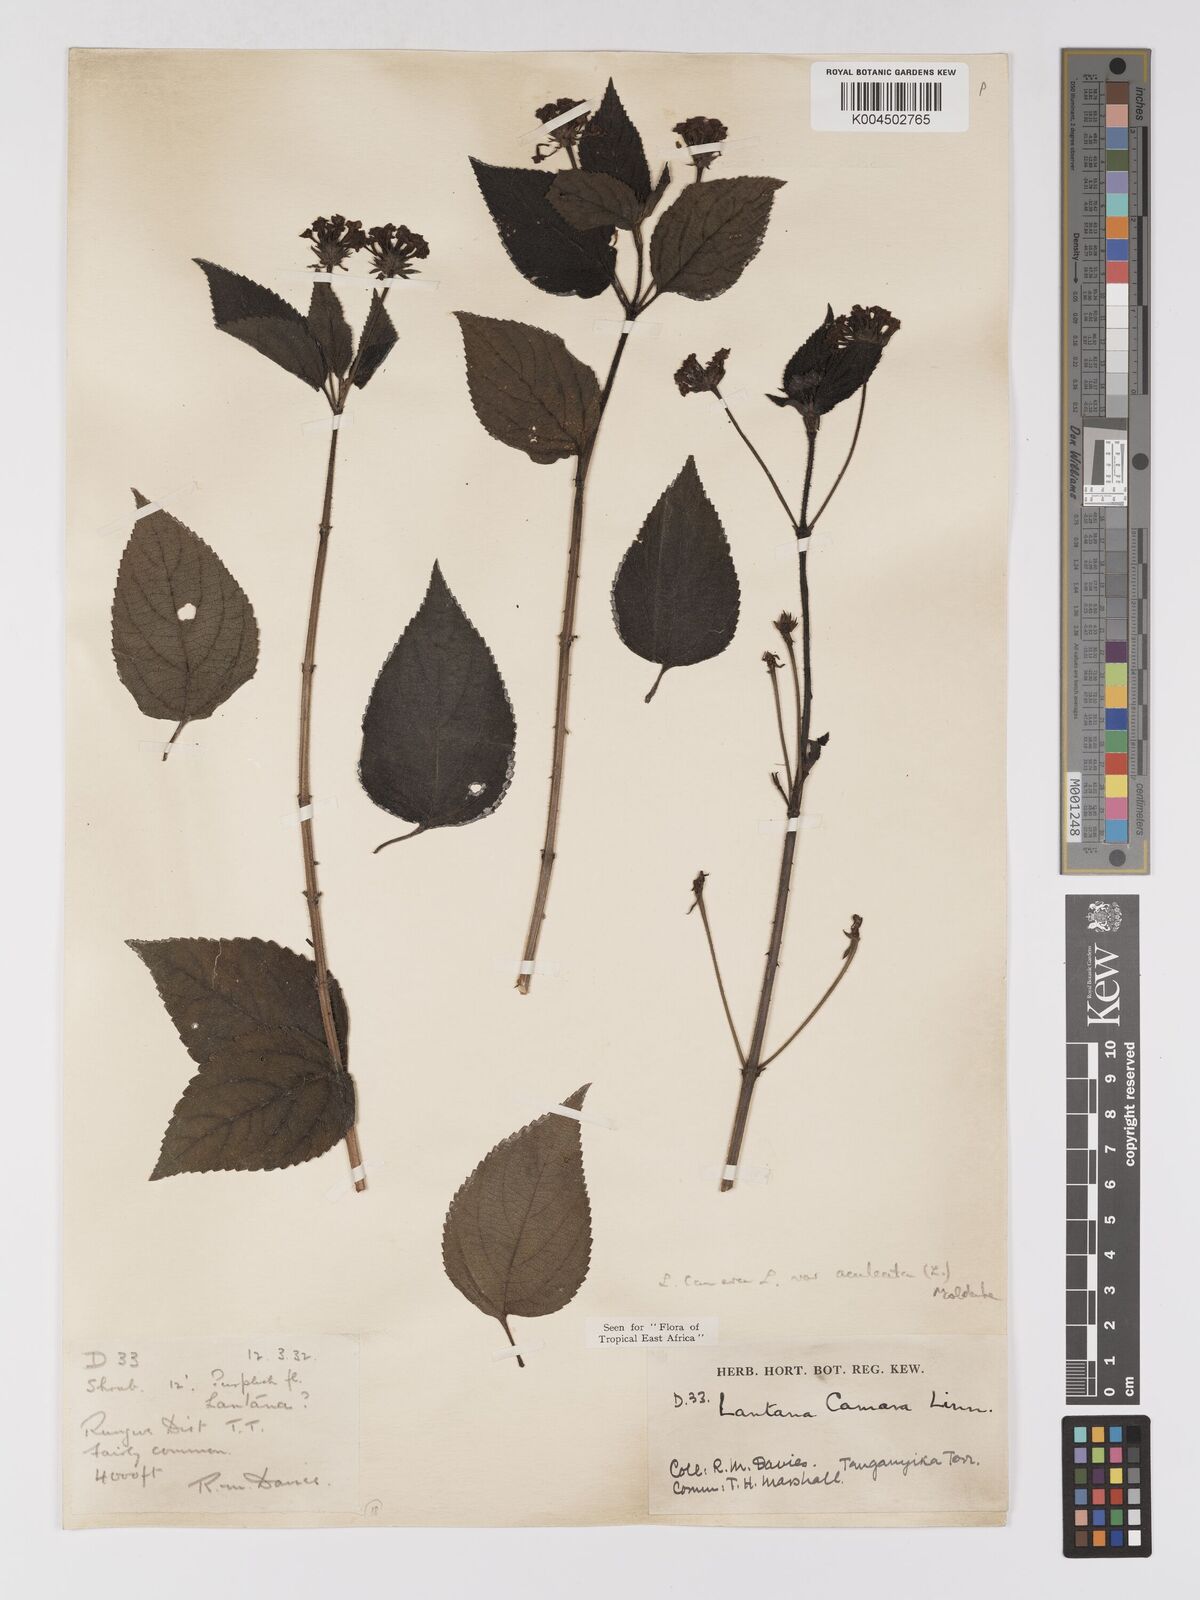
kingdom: Plantae
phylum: Tracheophyta
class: Magnoliopsida
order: Lamiales
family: Verbenaceae
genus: Lantana
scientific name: Lantana camara
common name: Lantana
